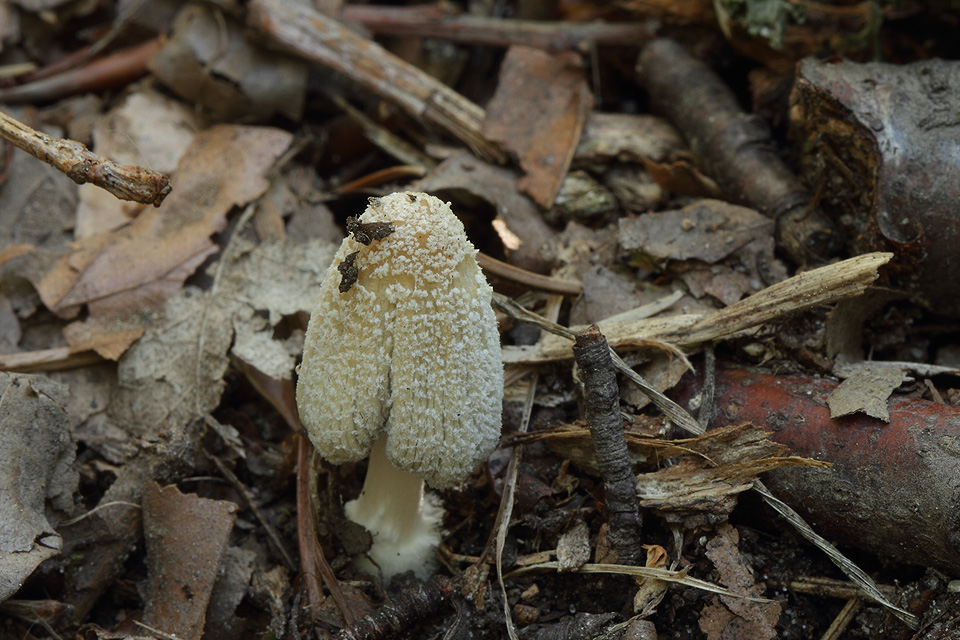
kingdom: Fungi
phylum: Basidiomycota
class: Agaricomycetes
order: Agaricales
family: Psathyrellaceae
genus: Coprinellus
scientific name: Coprinellus flocculosus
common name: fnugget blækhat
